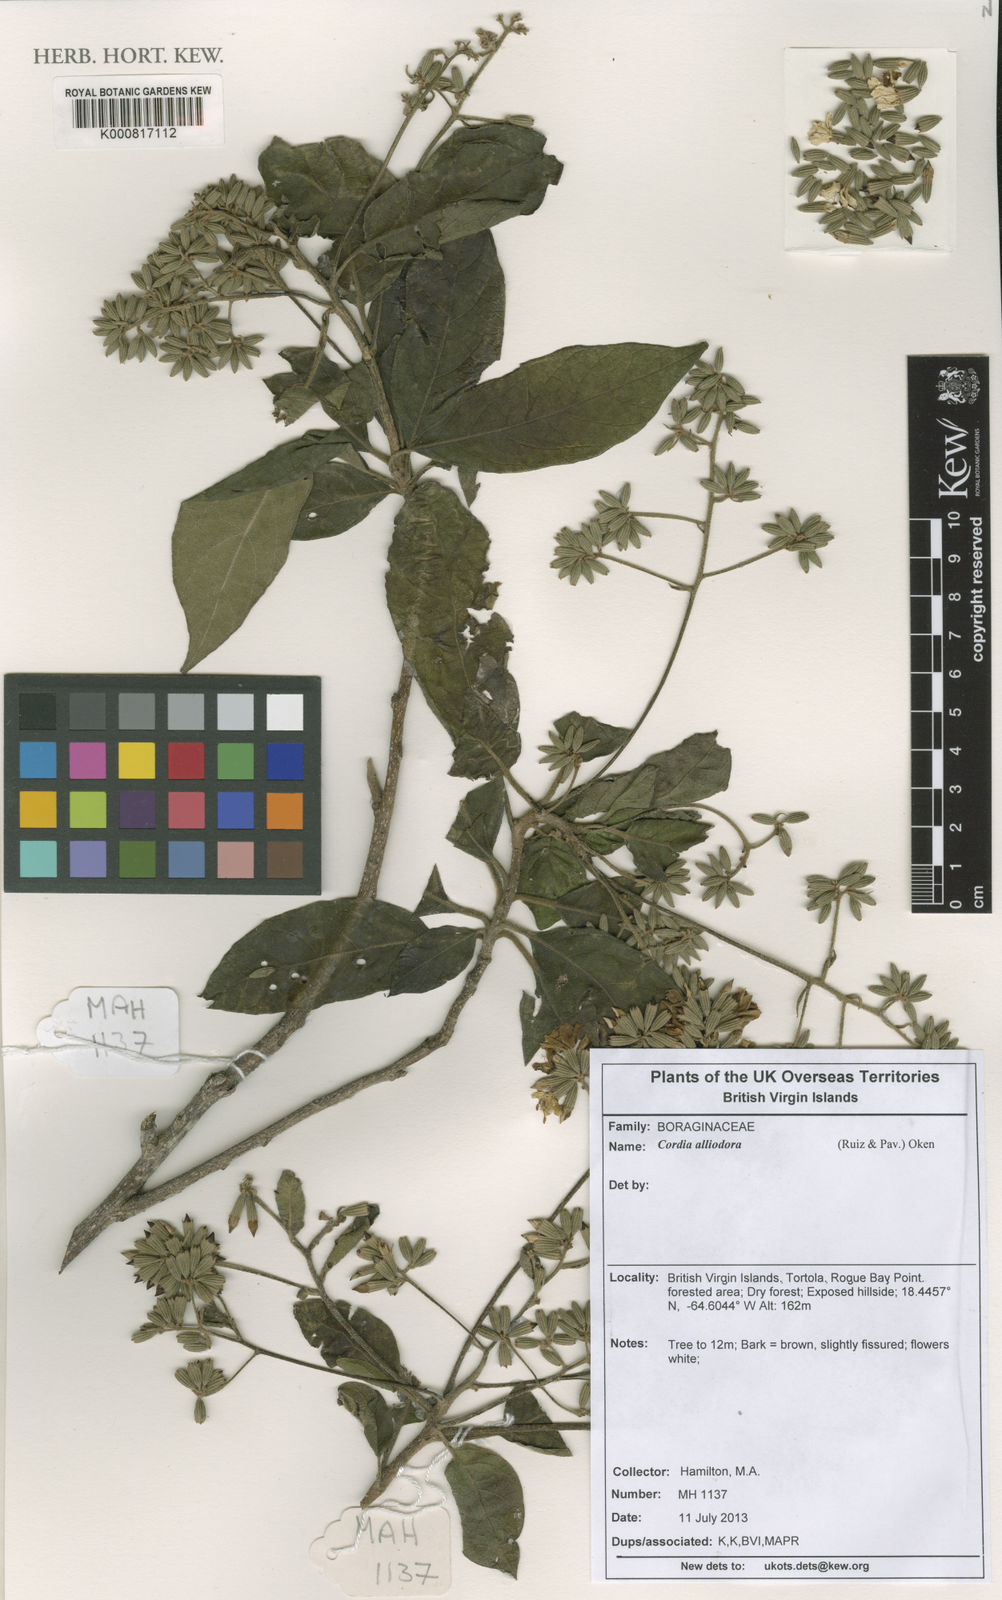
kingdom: Plantae
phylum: Tracheophyta
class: Magnoliopsida
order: Boraginales
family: Cordiaceae
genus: Cordia
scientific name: Cordia alliodora
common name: Spanish elm
